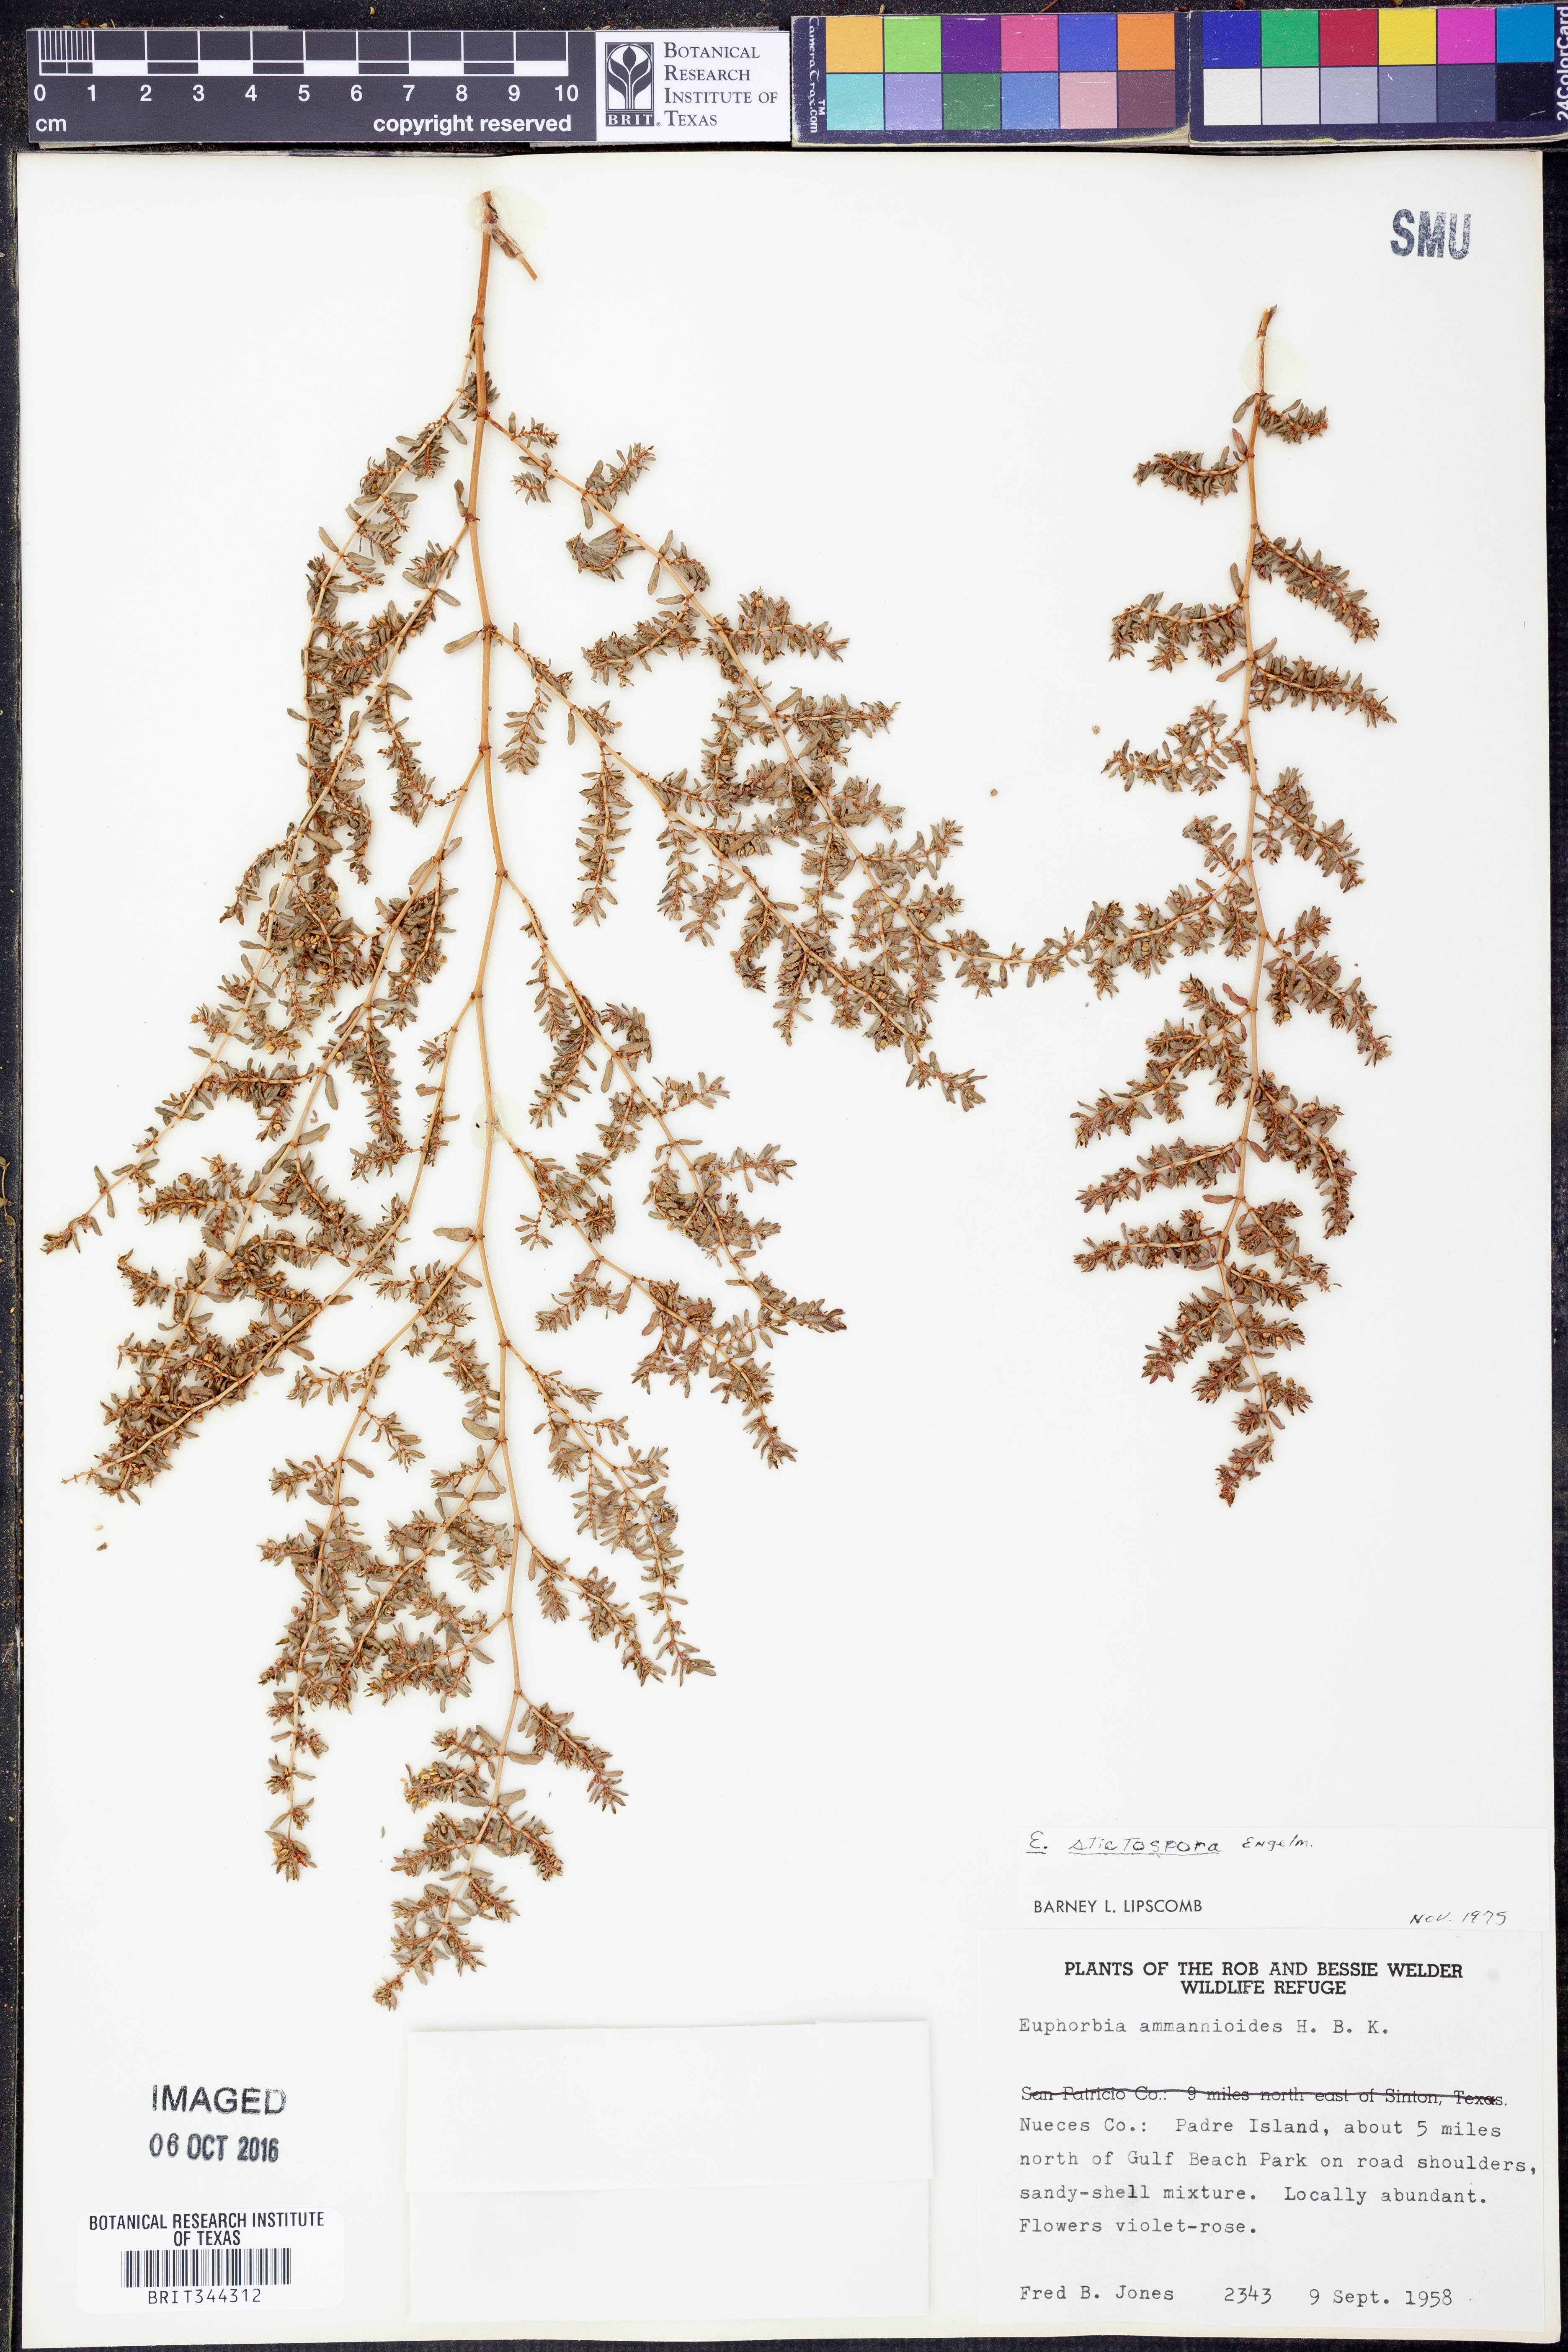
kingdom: Plantae
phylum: Tracheophyta
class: Magnoliopsida
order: Malpighiales
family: Euphorbiaceae
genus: Euphorbia
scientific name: Euphorbia stictospora
